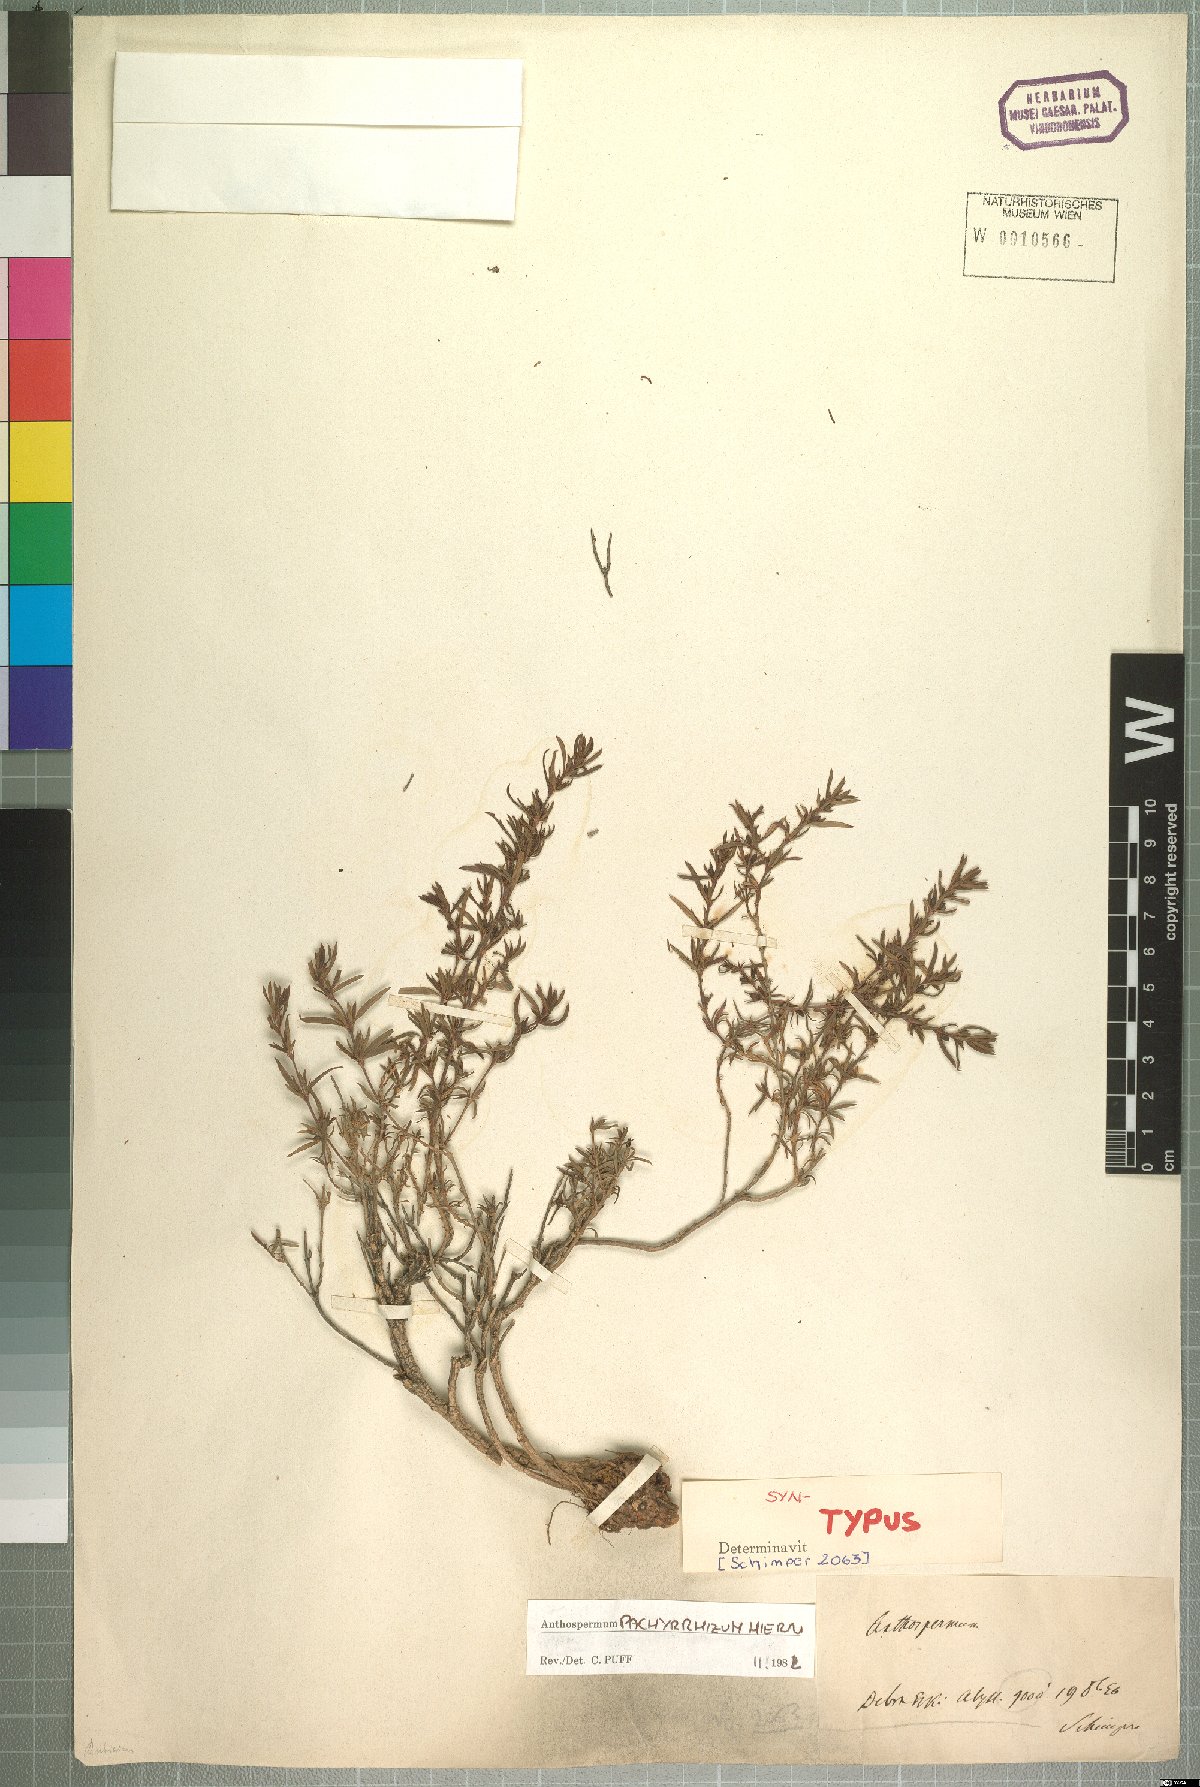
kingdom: Plantae
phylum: Tracheophyta
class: Magnoliopsida
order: Gentianales
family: Rubiaceae
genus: Anthospermum
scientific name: Anthospermum pachyrrhizum
